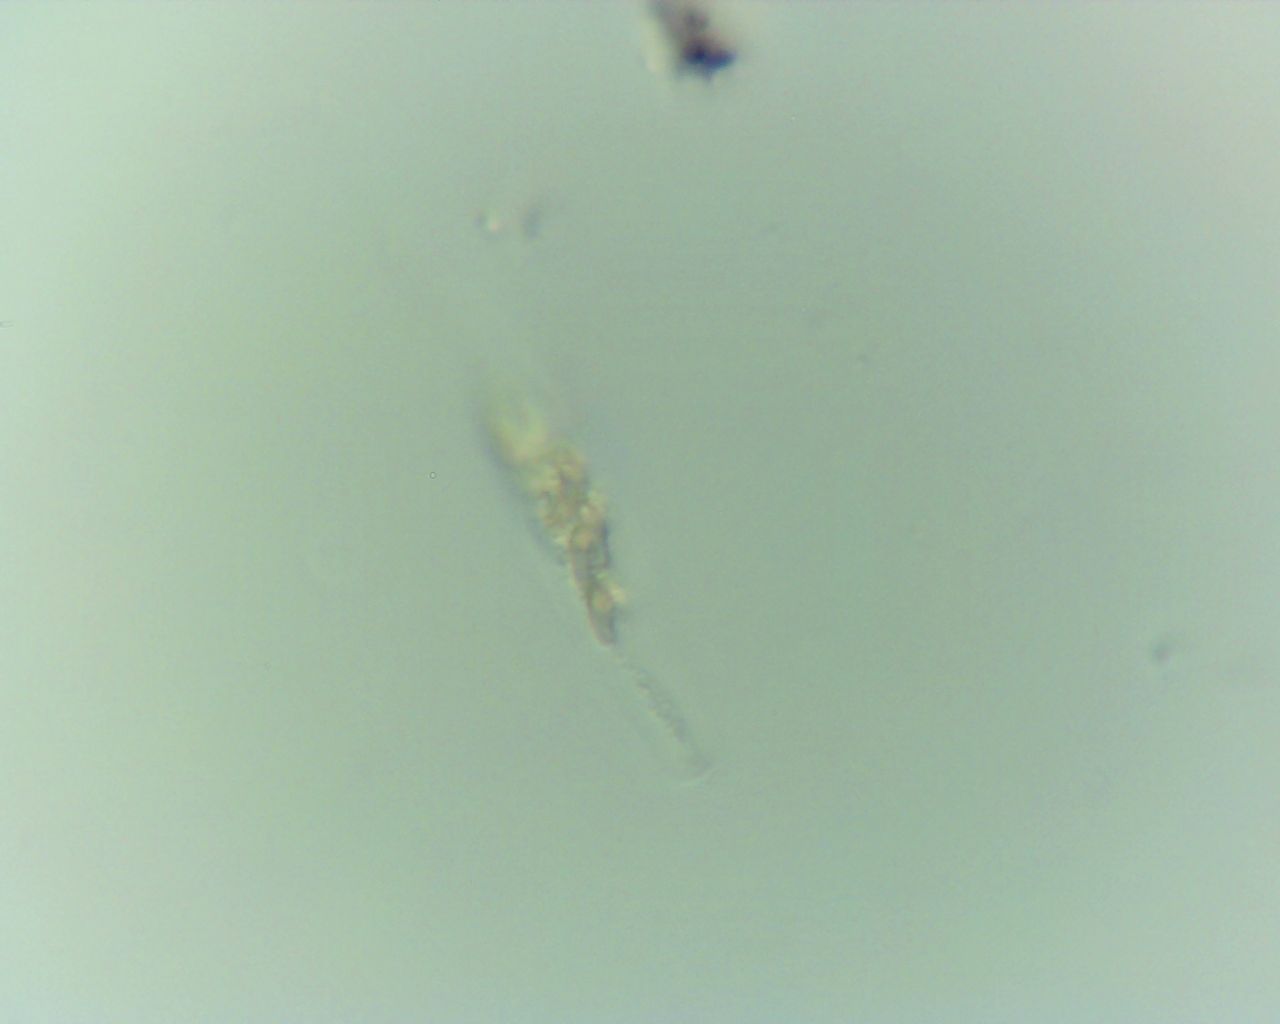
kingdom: Fungi
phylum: Ascomycota
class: Sordariomycetes
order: Xylariales
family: Diatrypaceae
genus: Eutypella
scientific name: Eutypella
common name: kulskorpe
